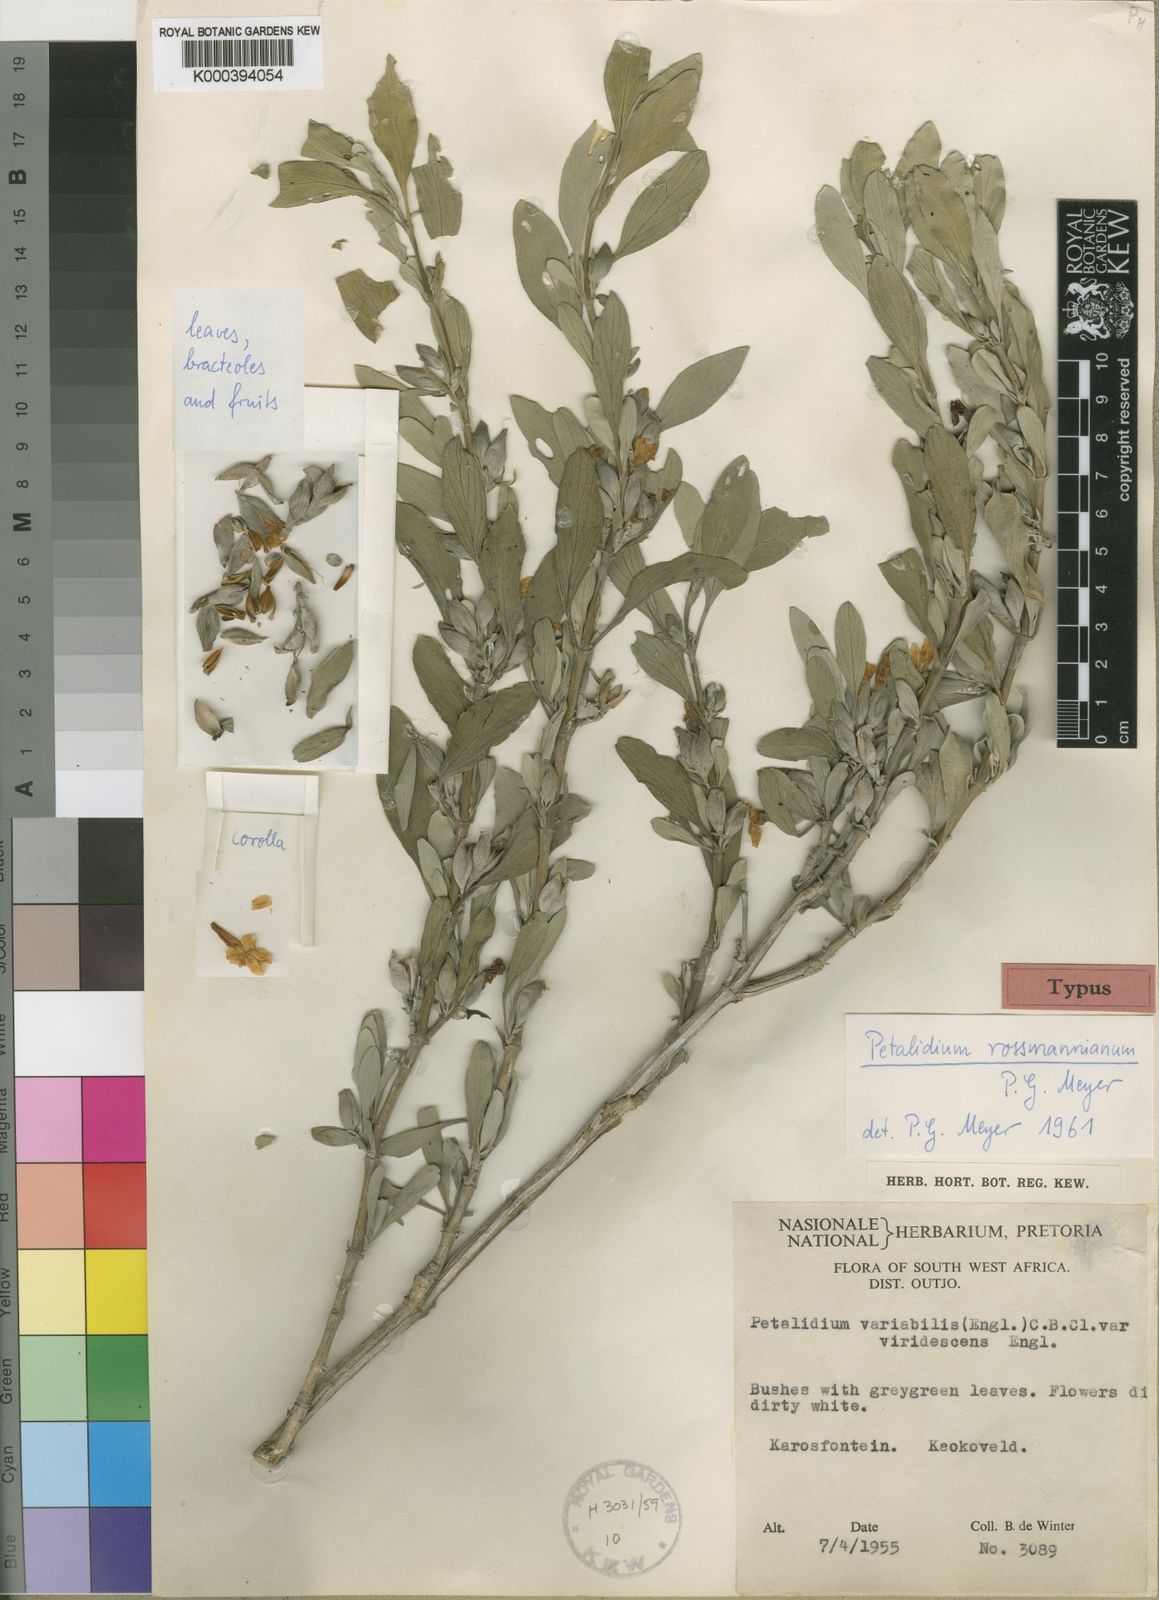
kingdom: Plantae
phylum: Tracheophyta
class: Magnoliopsida
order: Lamiales
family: Acanthaceae
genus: Petalidium
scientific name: Petalidium rossmannianum
